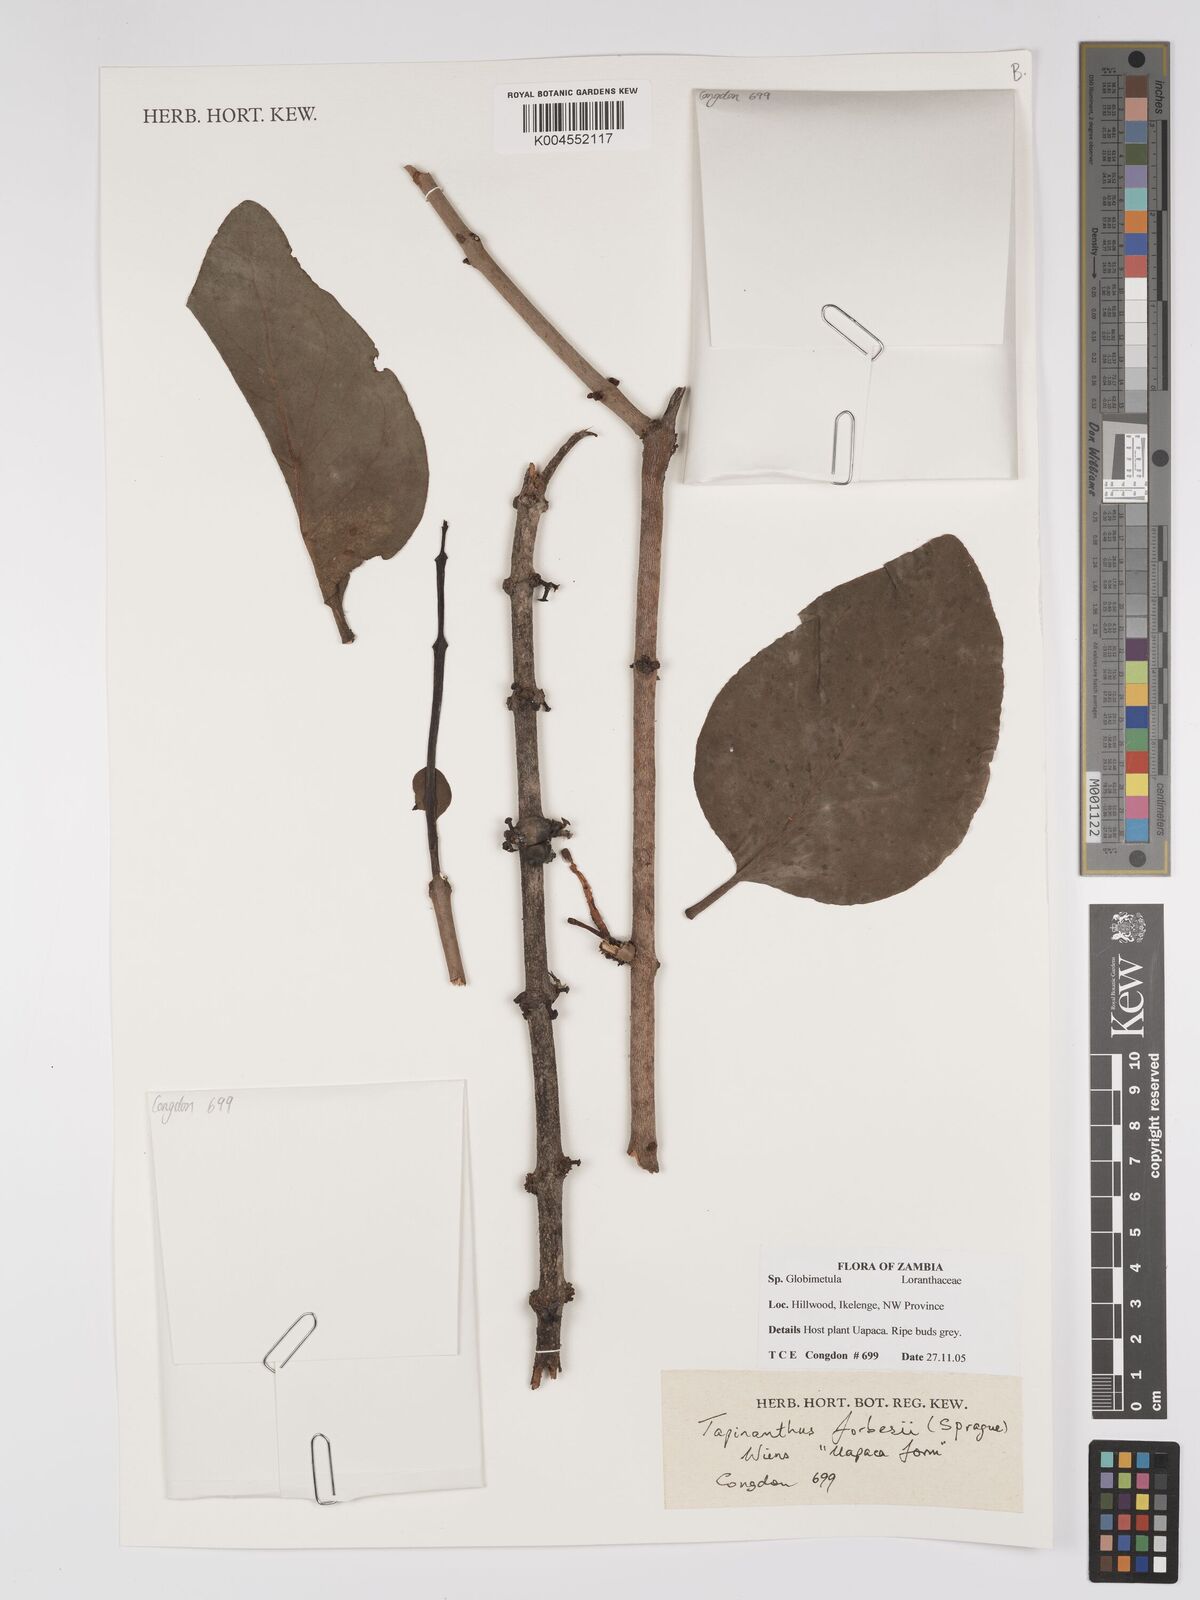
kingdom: Plantae
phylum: Tracheophyta
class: Magnoliopsida
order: Santalales
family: Loranthaceae
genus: Tapinanthus
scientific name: Tapinanthus forbesii
